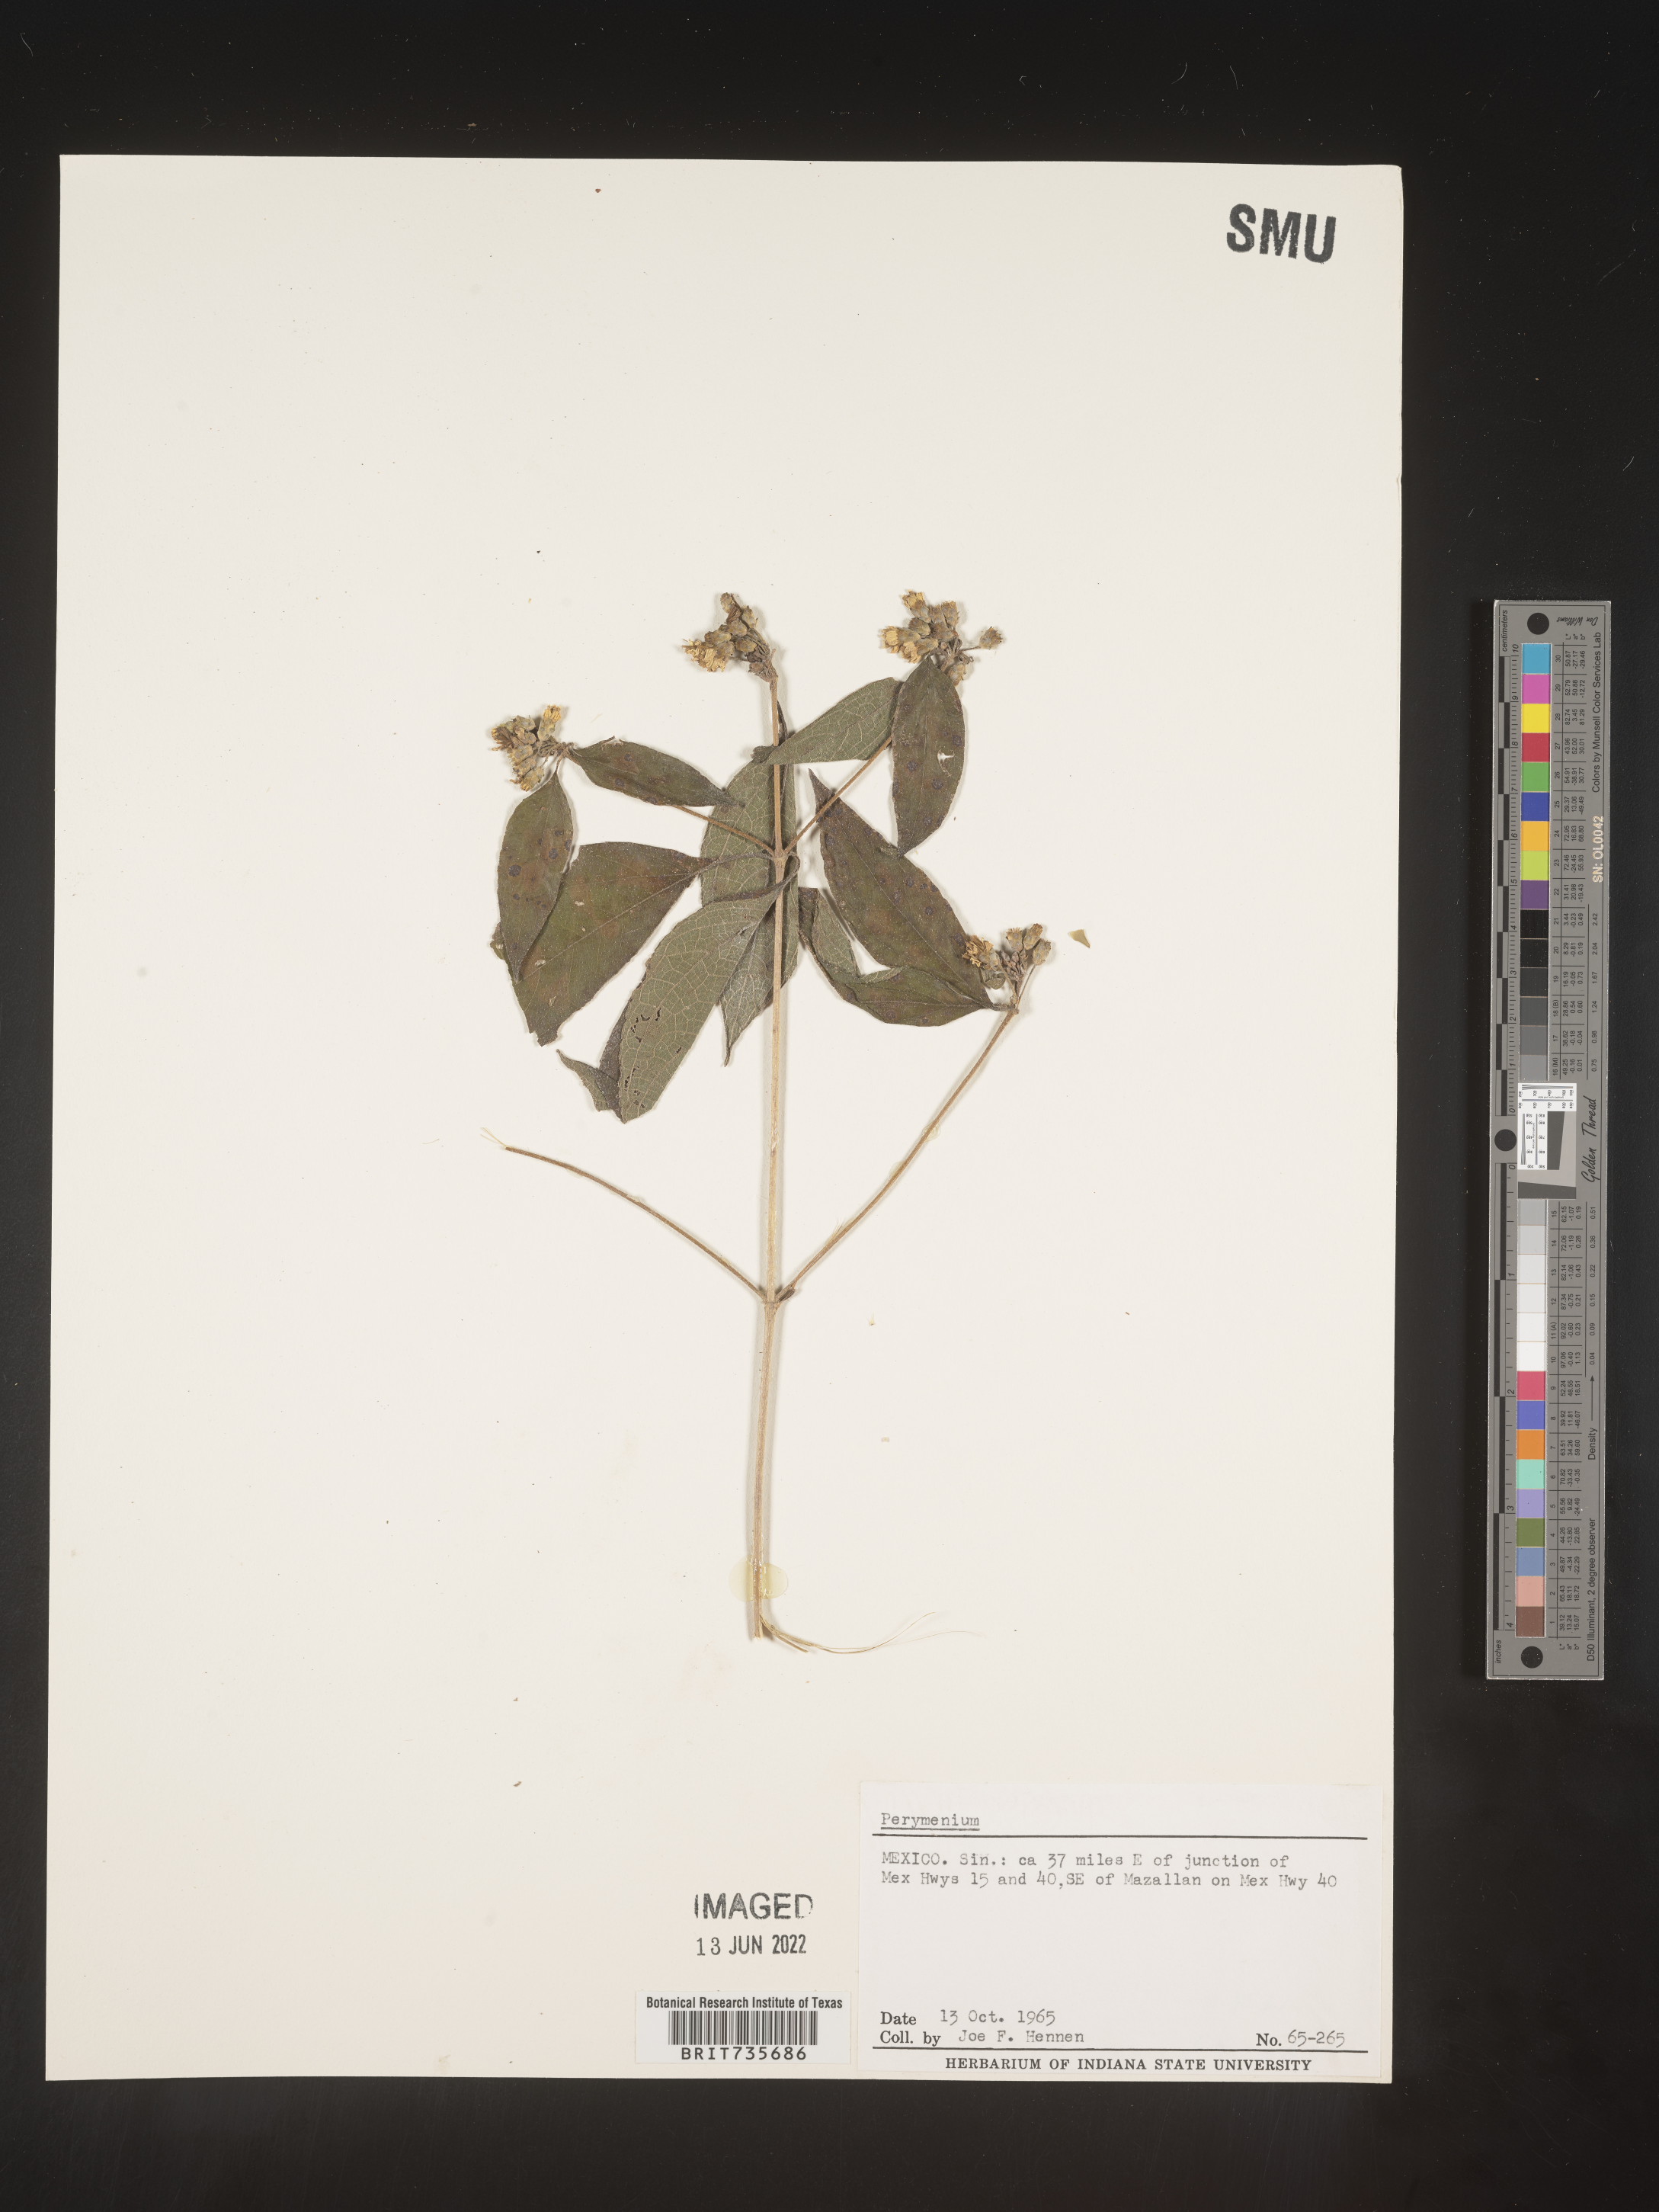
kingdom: Plantae
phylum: Tracheophyta
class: Magnoliopsida
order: Asterales
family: Asteraceae
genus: Perymenium
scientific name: Perymenium
